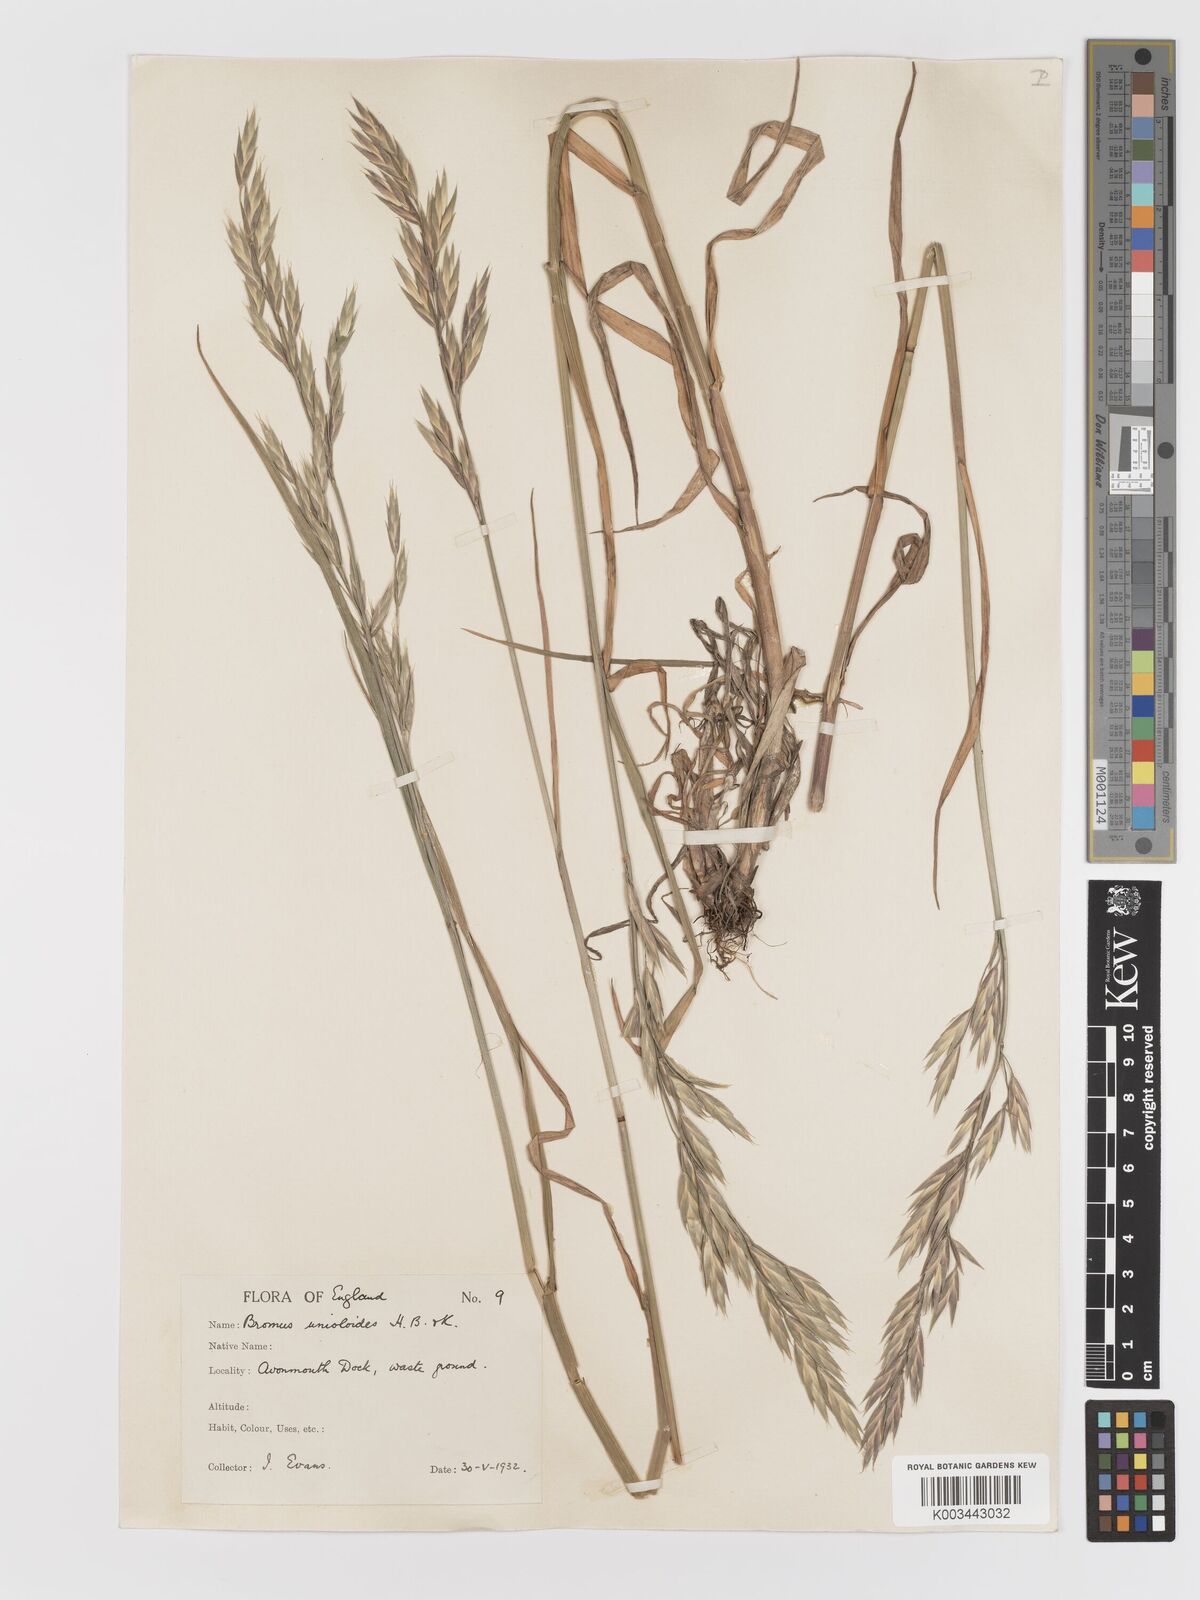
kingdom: Plantae
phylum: Tracheophyta
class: Liliopsida
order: Poales
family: Poaceae
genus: Bromus
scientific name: Bromus catharticus
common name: Rescuegrass
